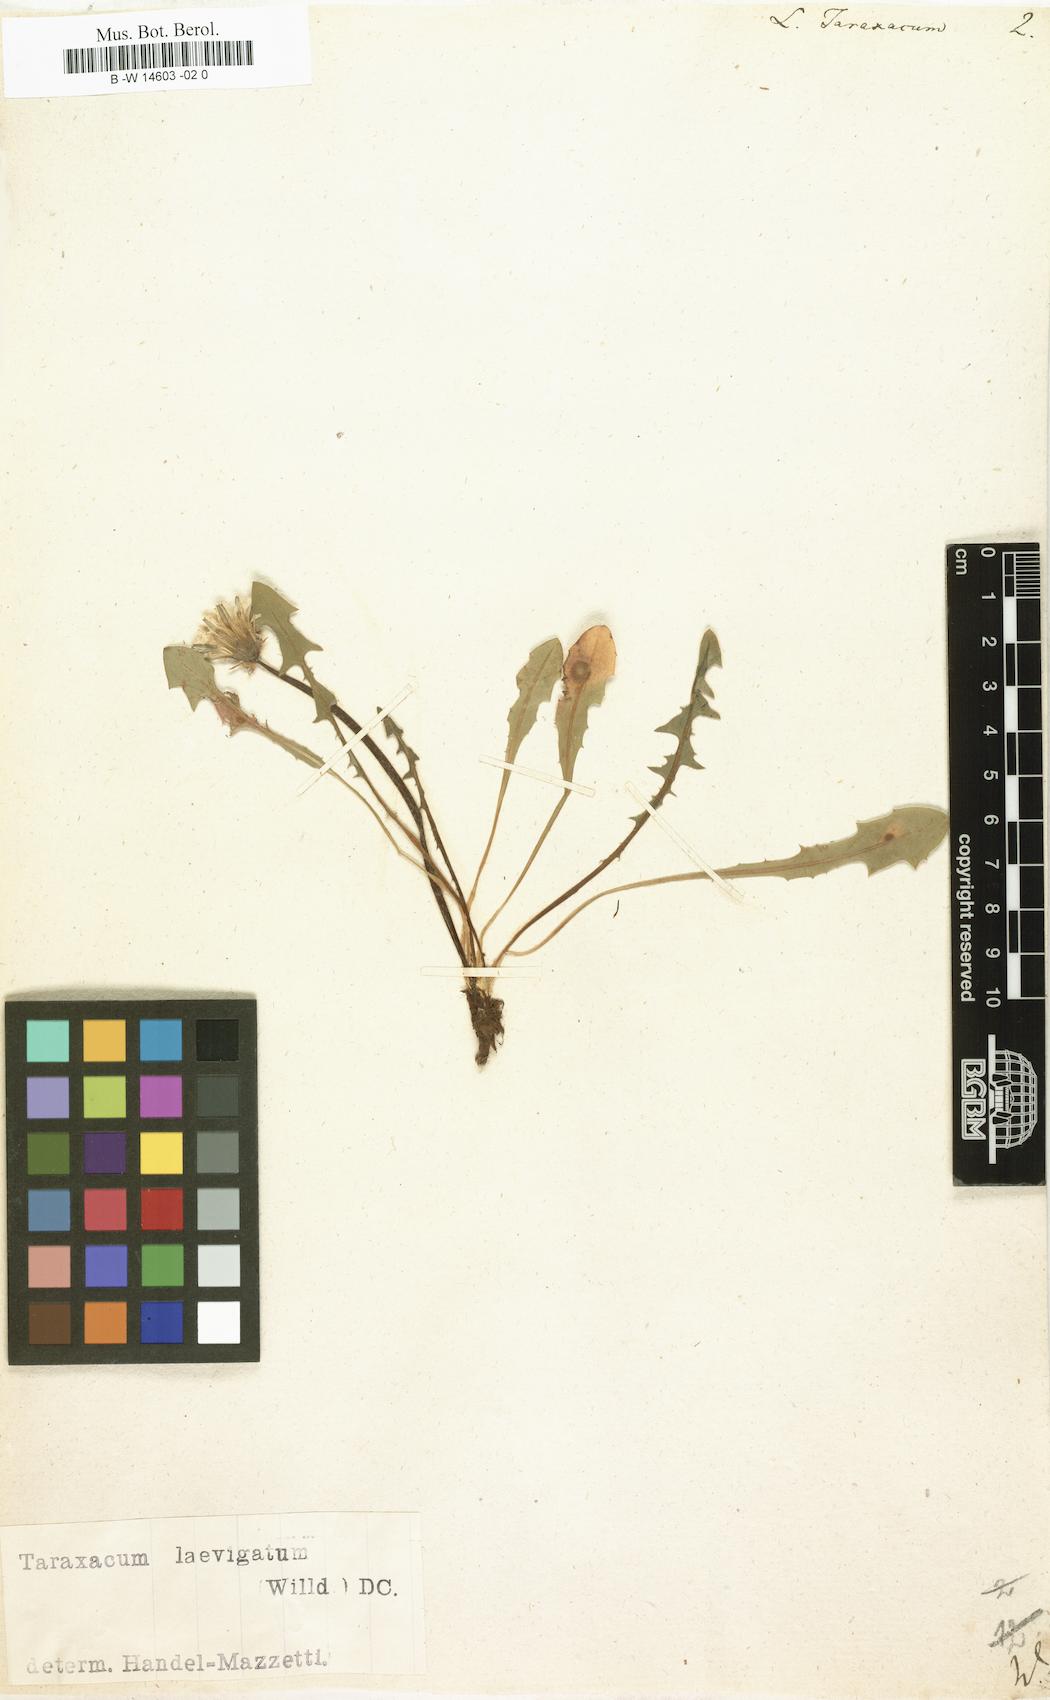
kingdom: Plantae
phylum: Tracheophyta
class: Magnoliopsida
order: Asterales
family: Asteraceae
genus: Taraxacum
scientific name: Taraxacum officinale
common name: Common dandelion
